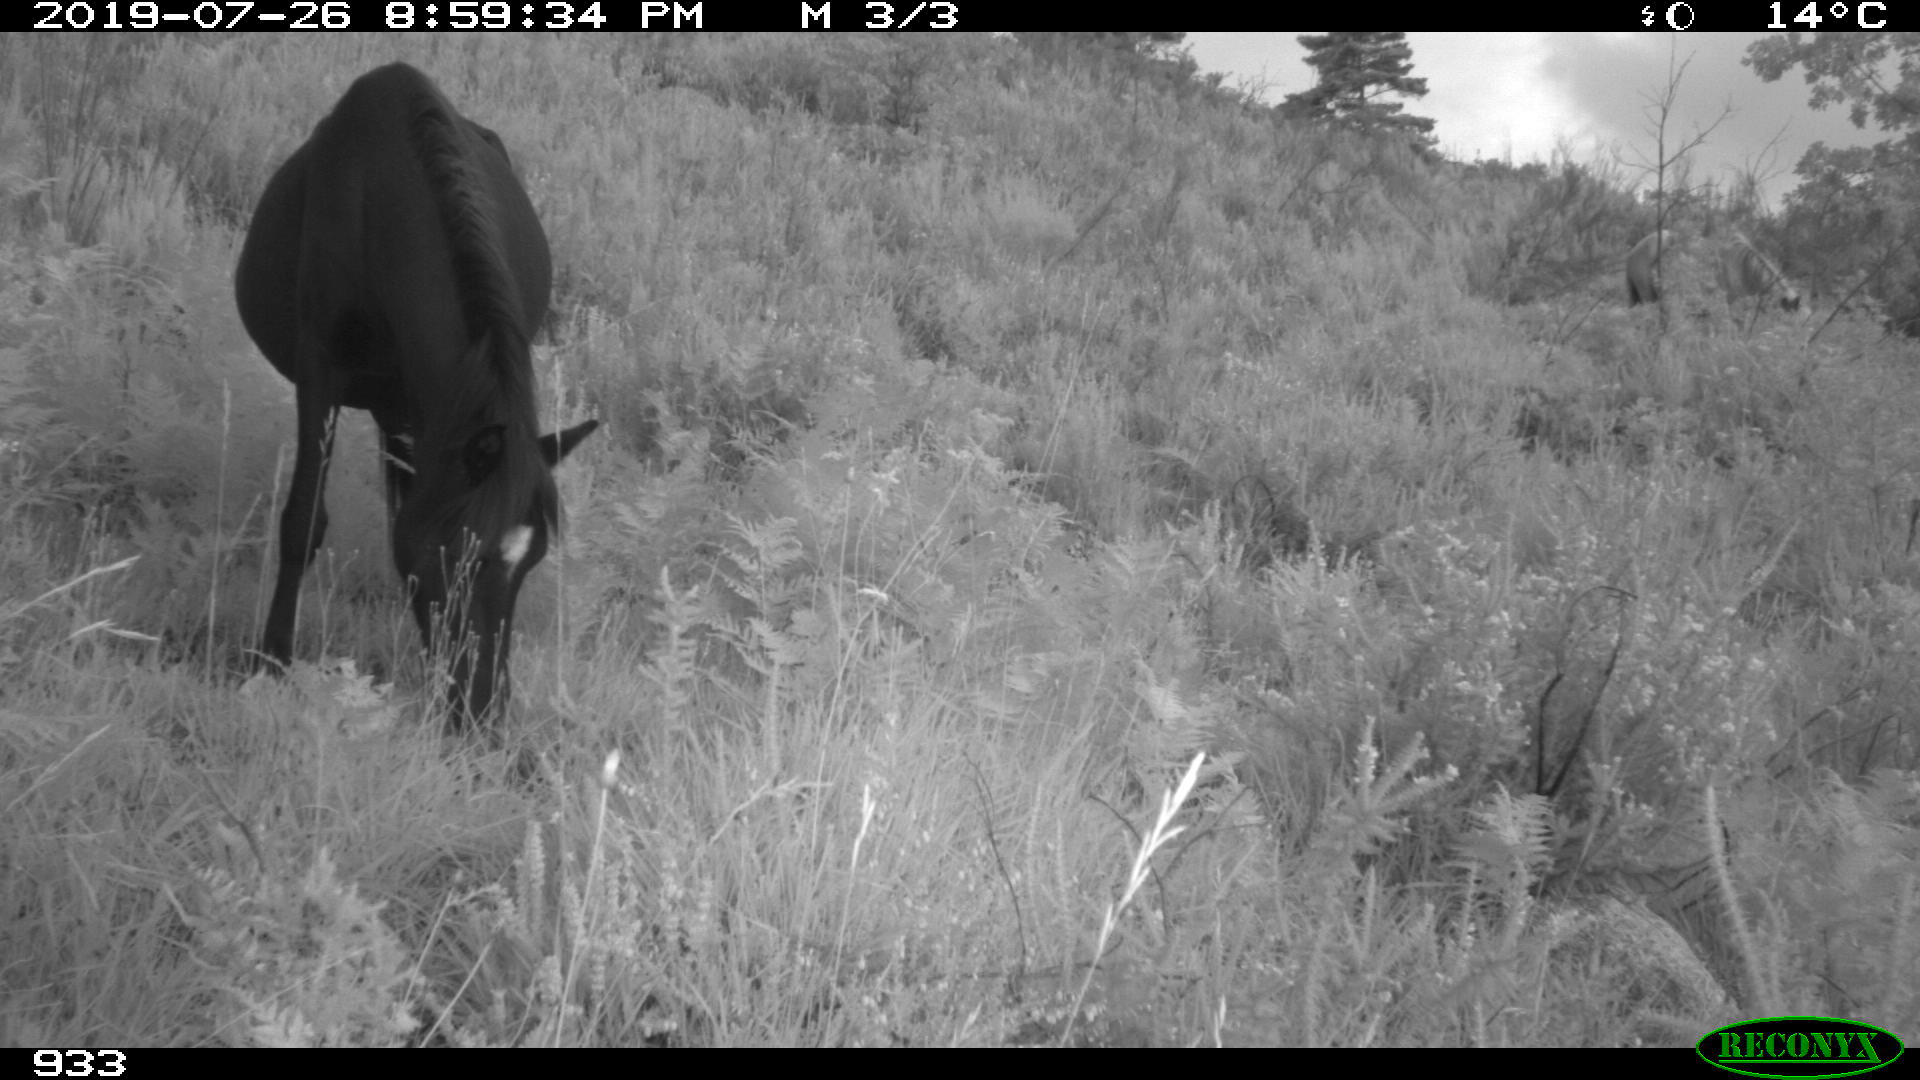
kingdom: Animalia
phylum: Chordata
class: Mammalia
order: Perissodactyla
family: Equidae
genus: Equus
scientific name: Equus caballus
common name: Horse
